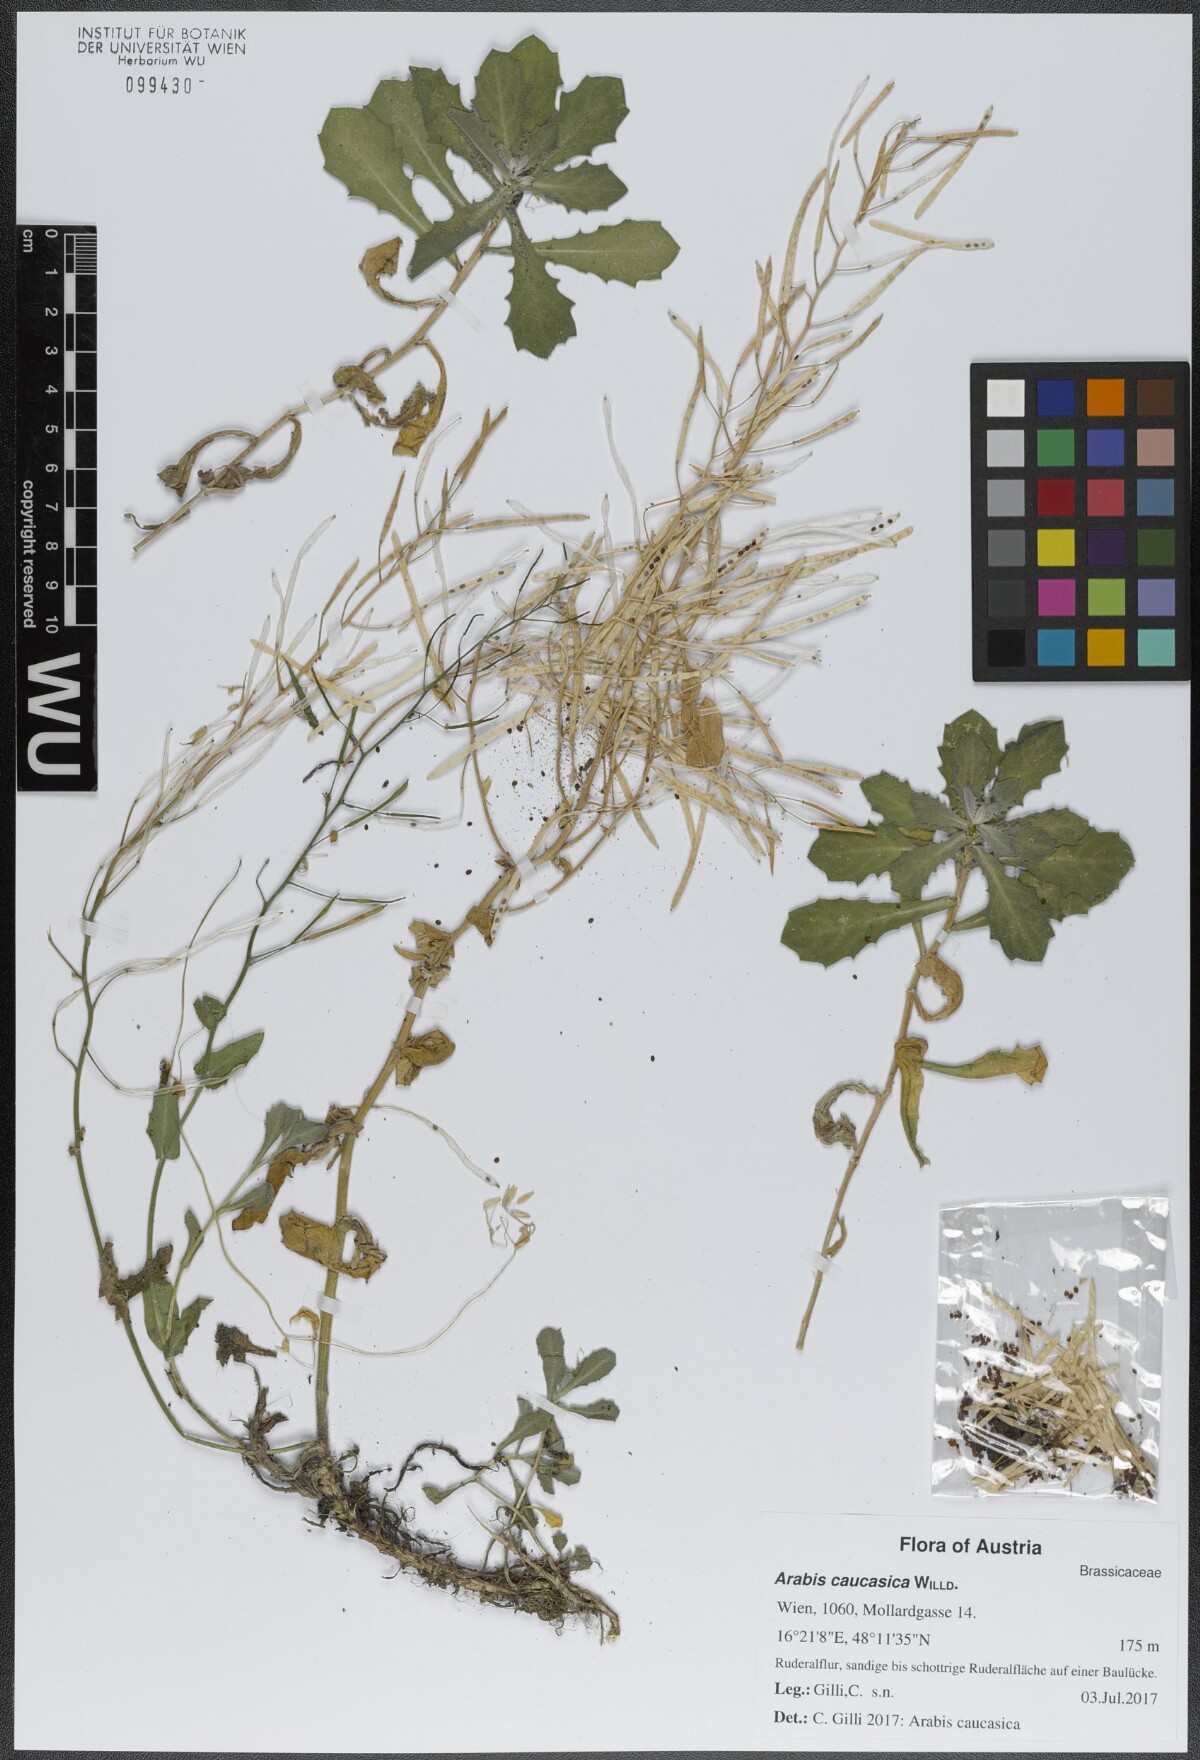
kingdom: Plantae
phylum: Tracheophyta
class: Magnoliopsida
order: Brassicales
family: Brassicaceae
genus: Arabis
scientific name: Arabis caucasica
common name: Gray rockcress
